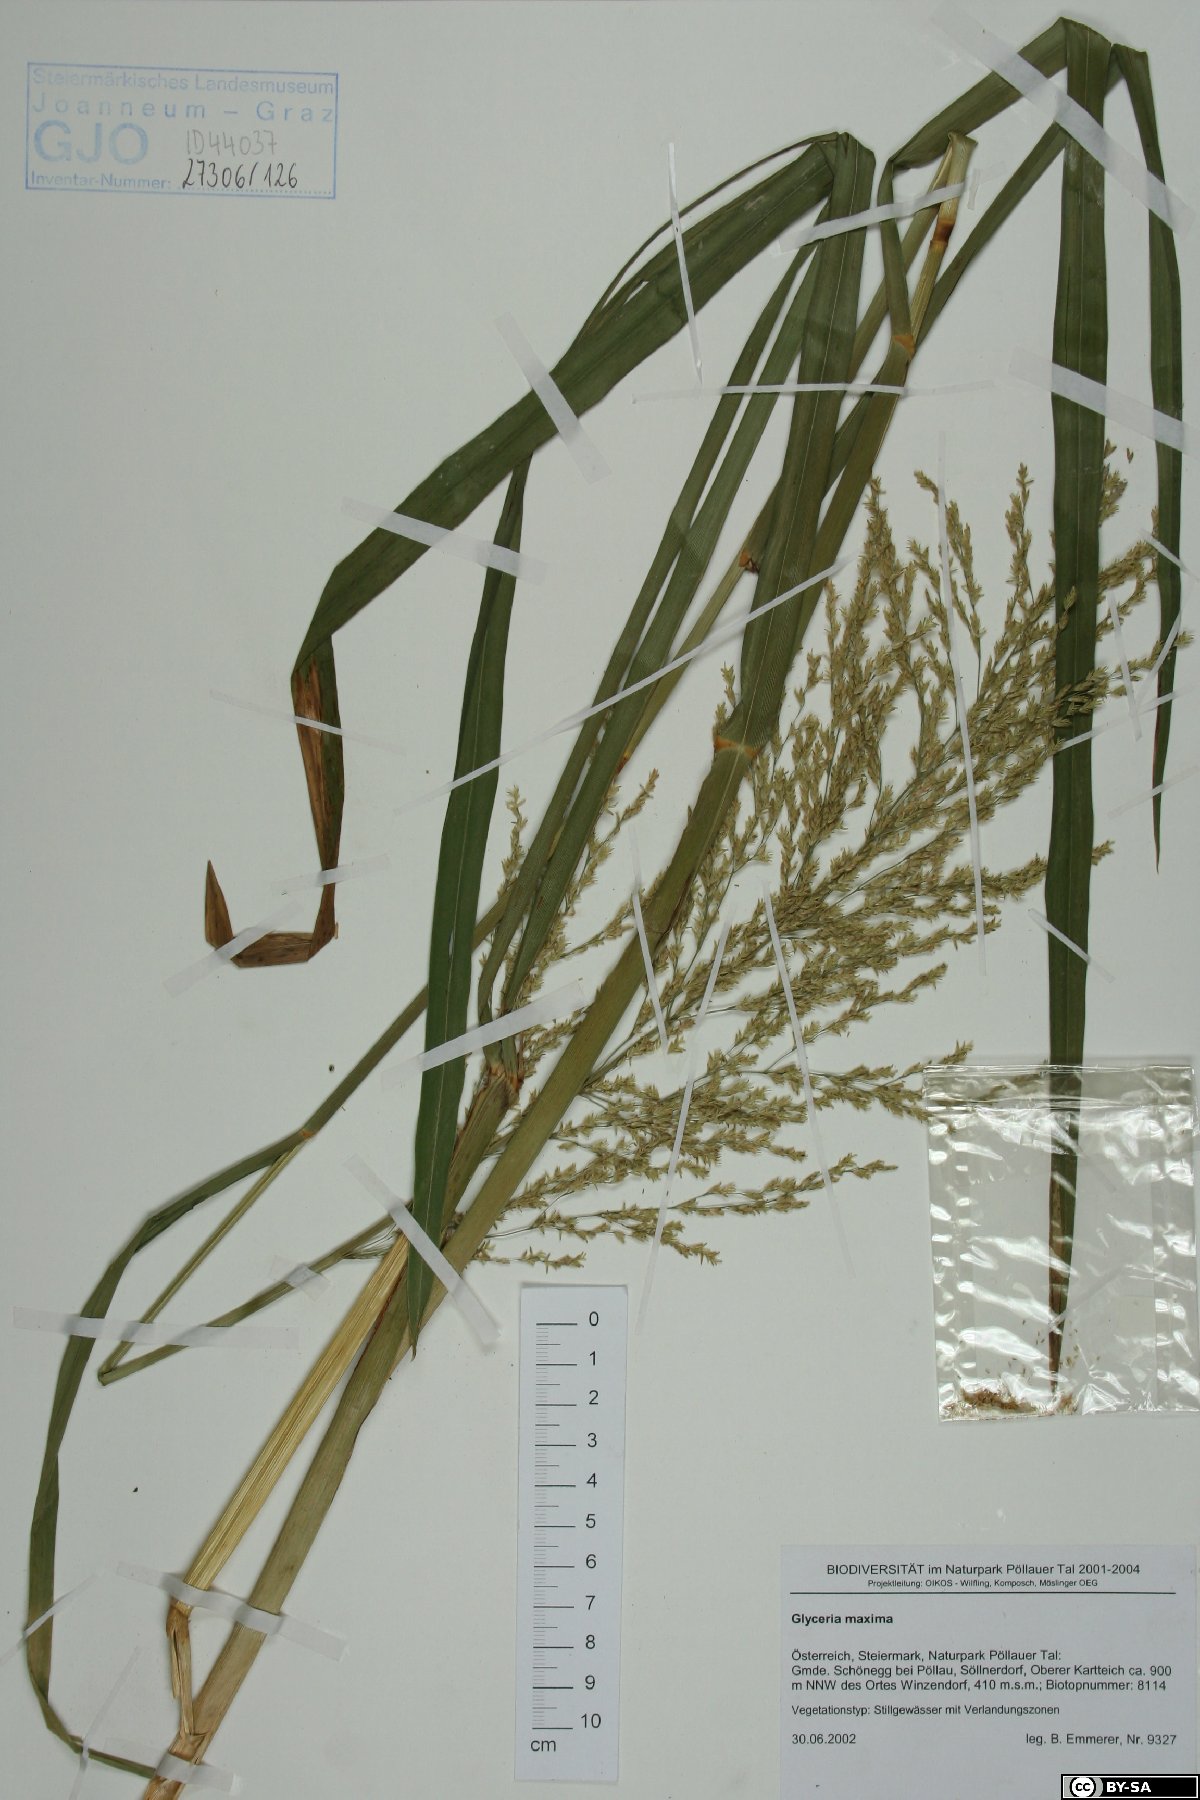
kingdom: Plantae
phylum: Tracheophyta
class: Liliopsida
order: Poales
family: Poaceae
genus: Glyceria
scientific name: Glyceria maxima
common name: Reed mannagrass
